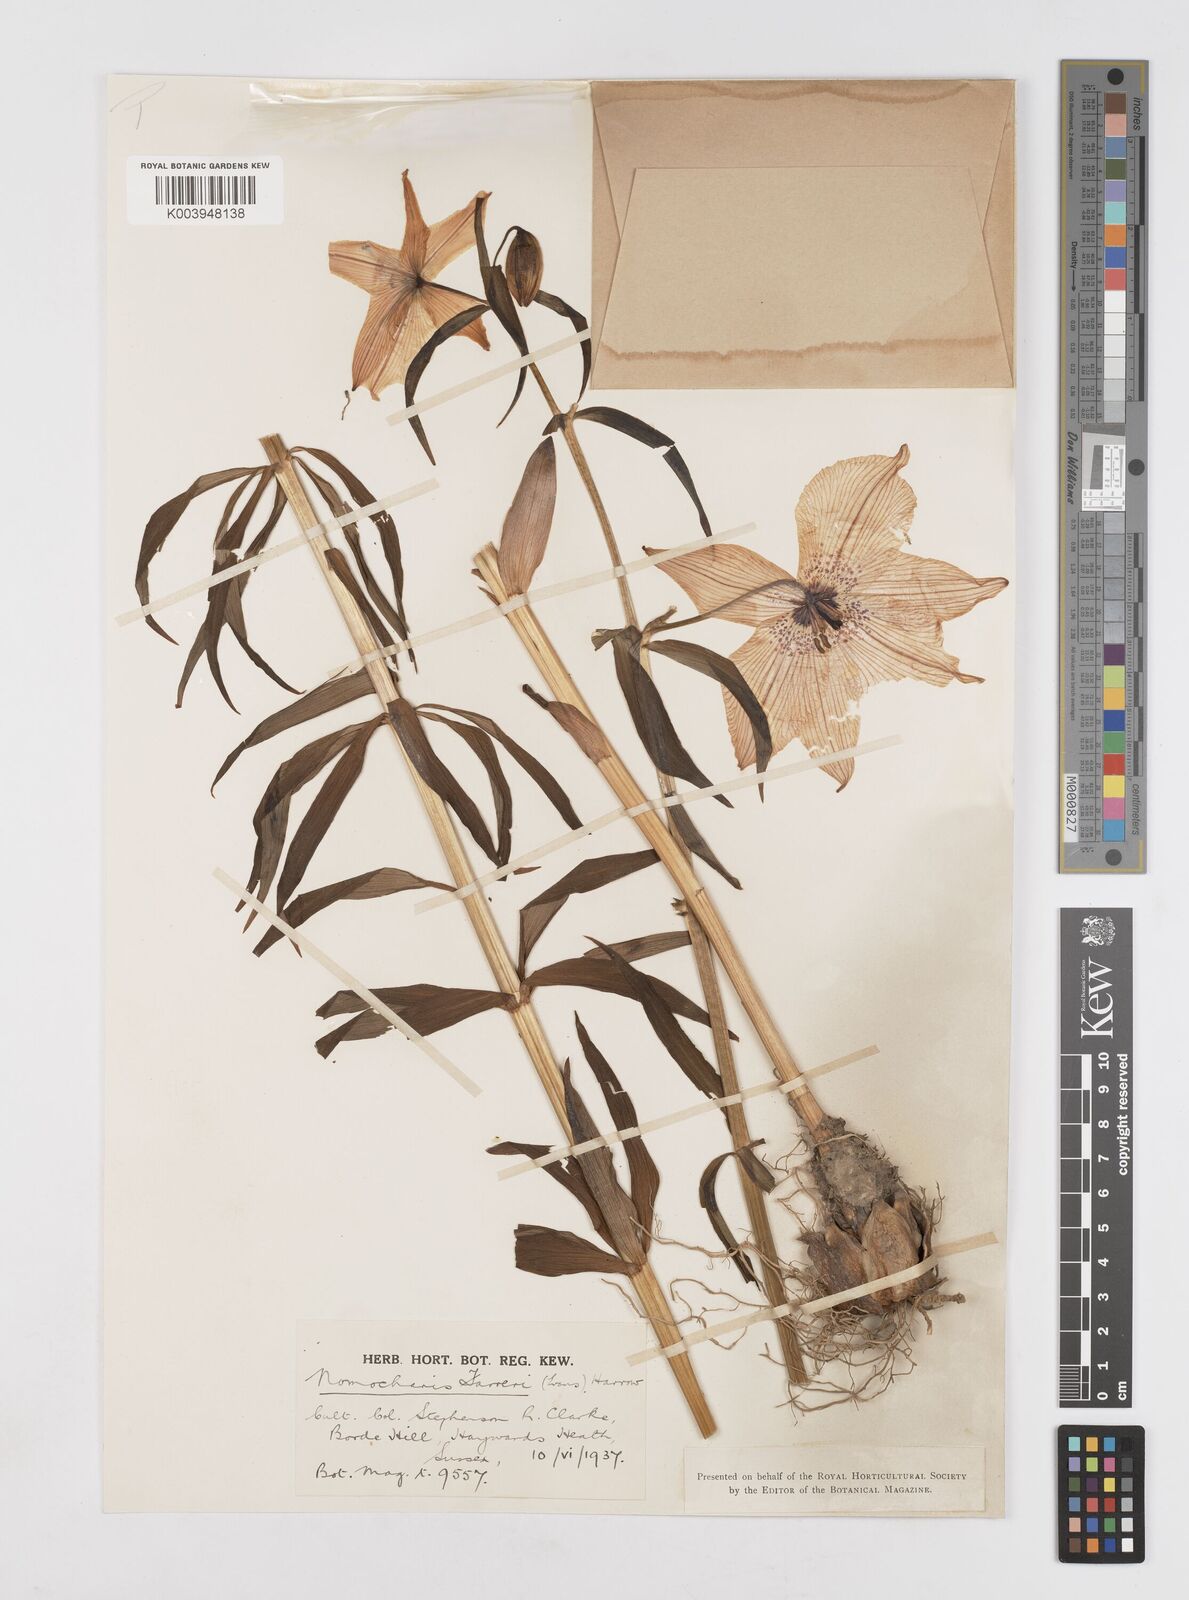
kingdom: Plantae
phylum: Tracheophyta
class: Liliopsida
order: Liliales
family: Liliaceae
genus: Lilium
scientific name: Lilium sealyi
